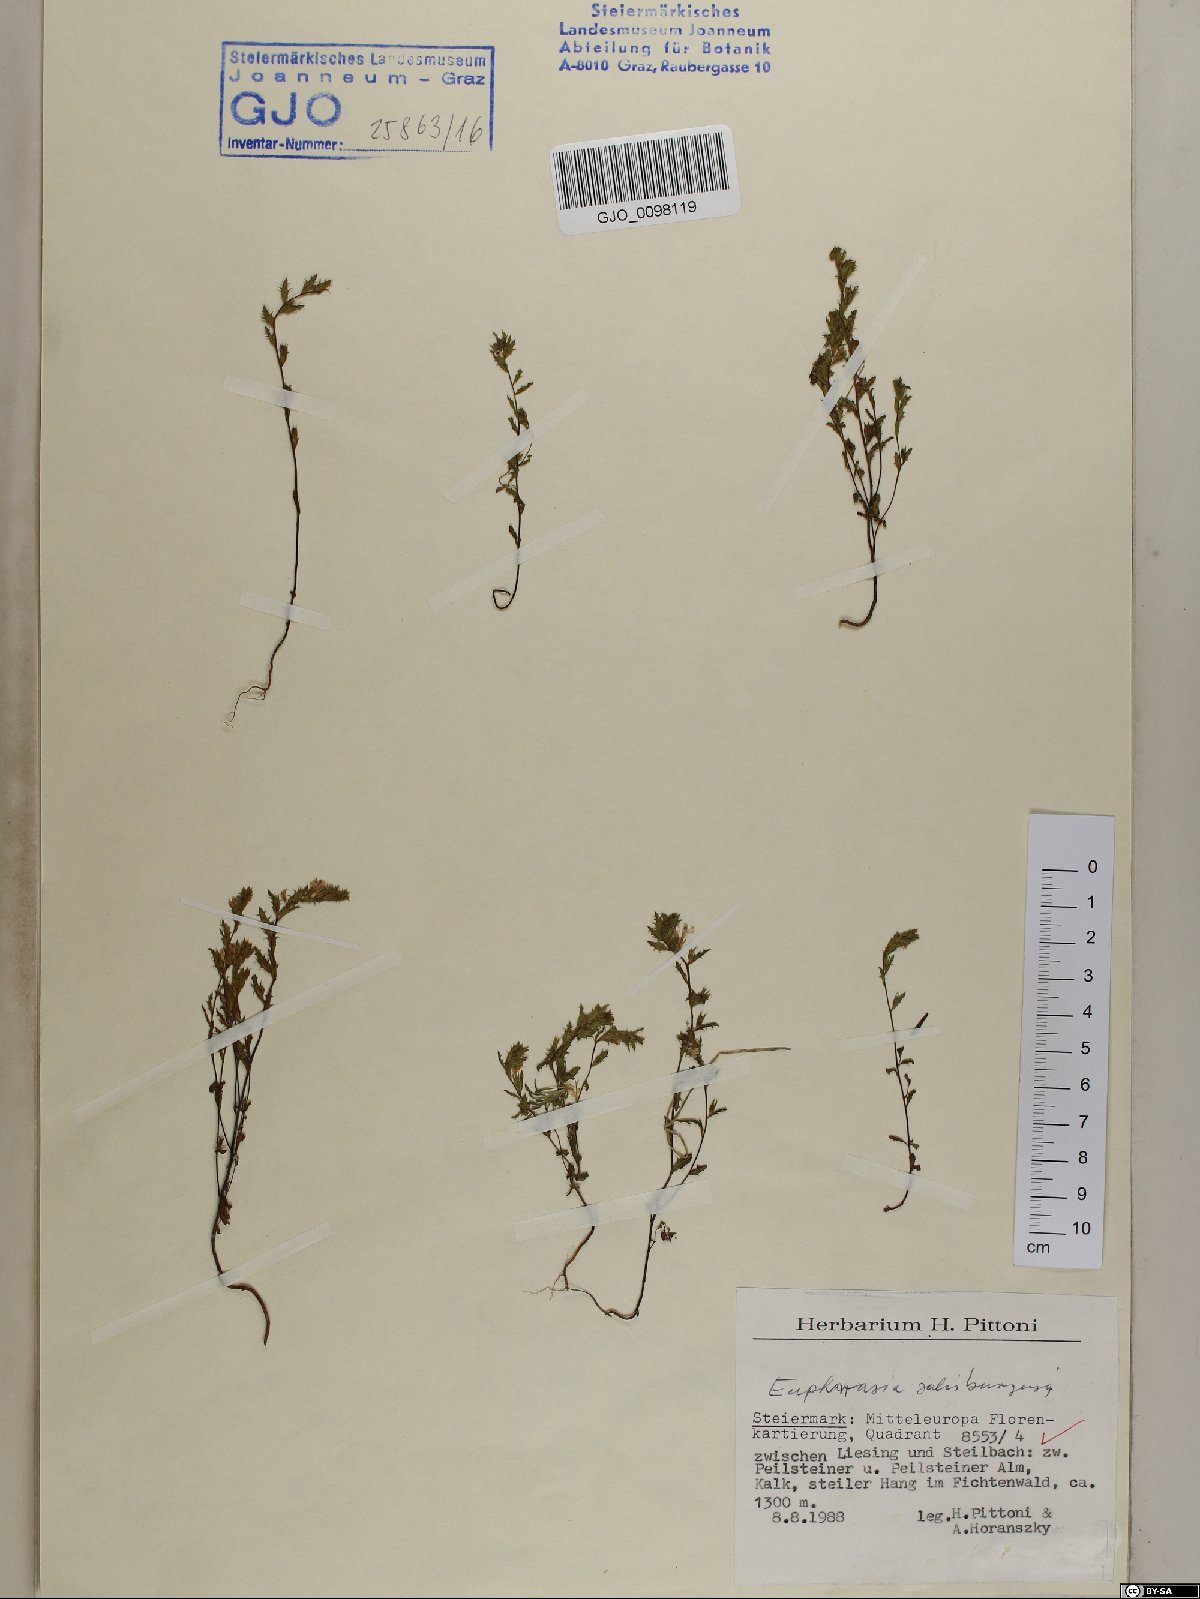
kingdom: Plantae
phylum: Tracheophyta
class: Magnoliopsida
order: Lamiales
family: Orobanchaceae
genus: Euphrasia
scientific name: Euphrasia salisburgensis
